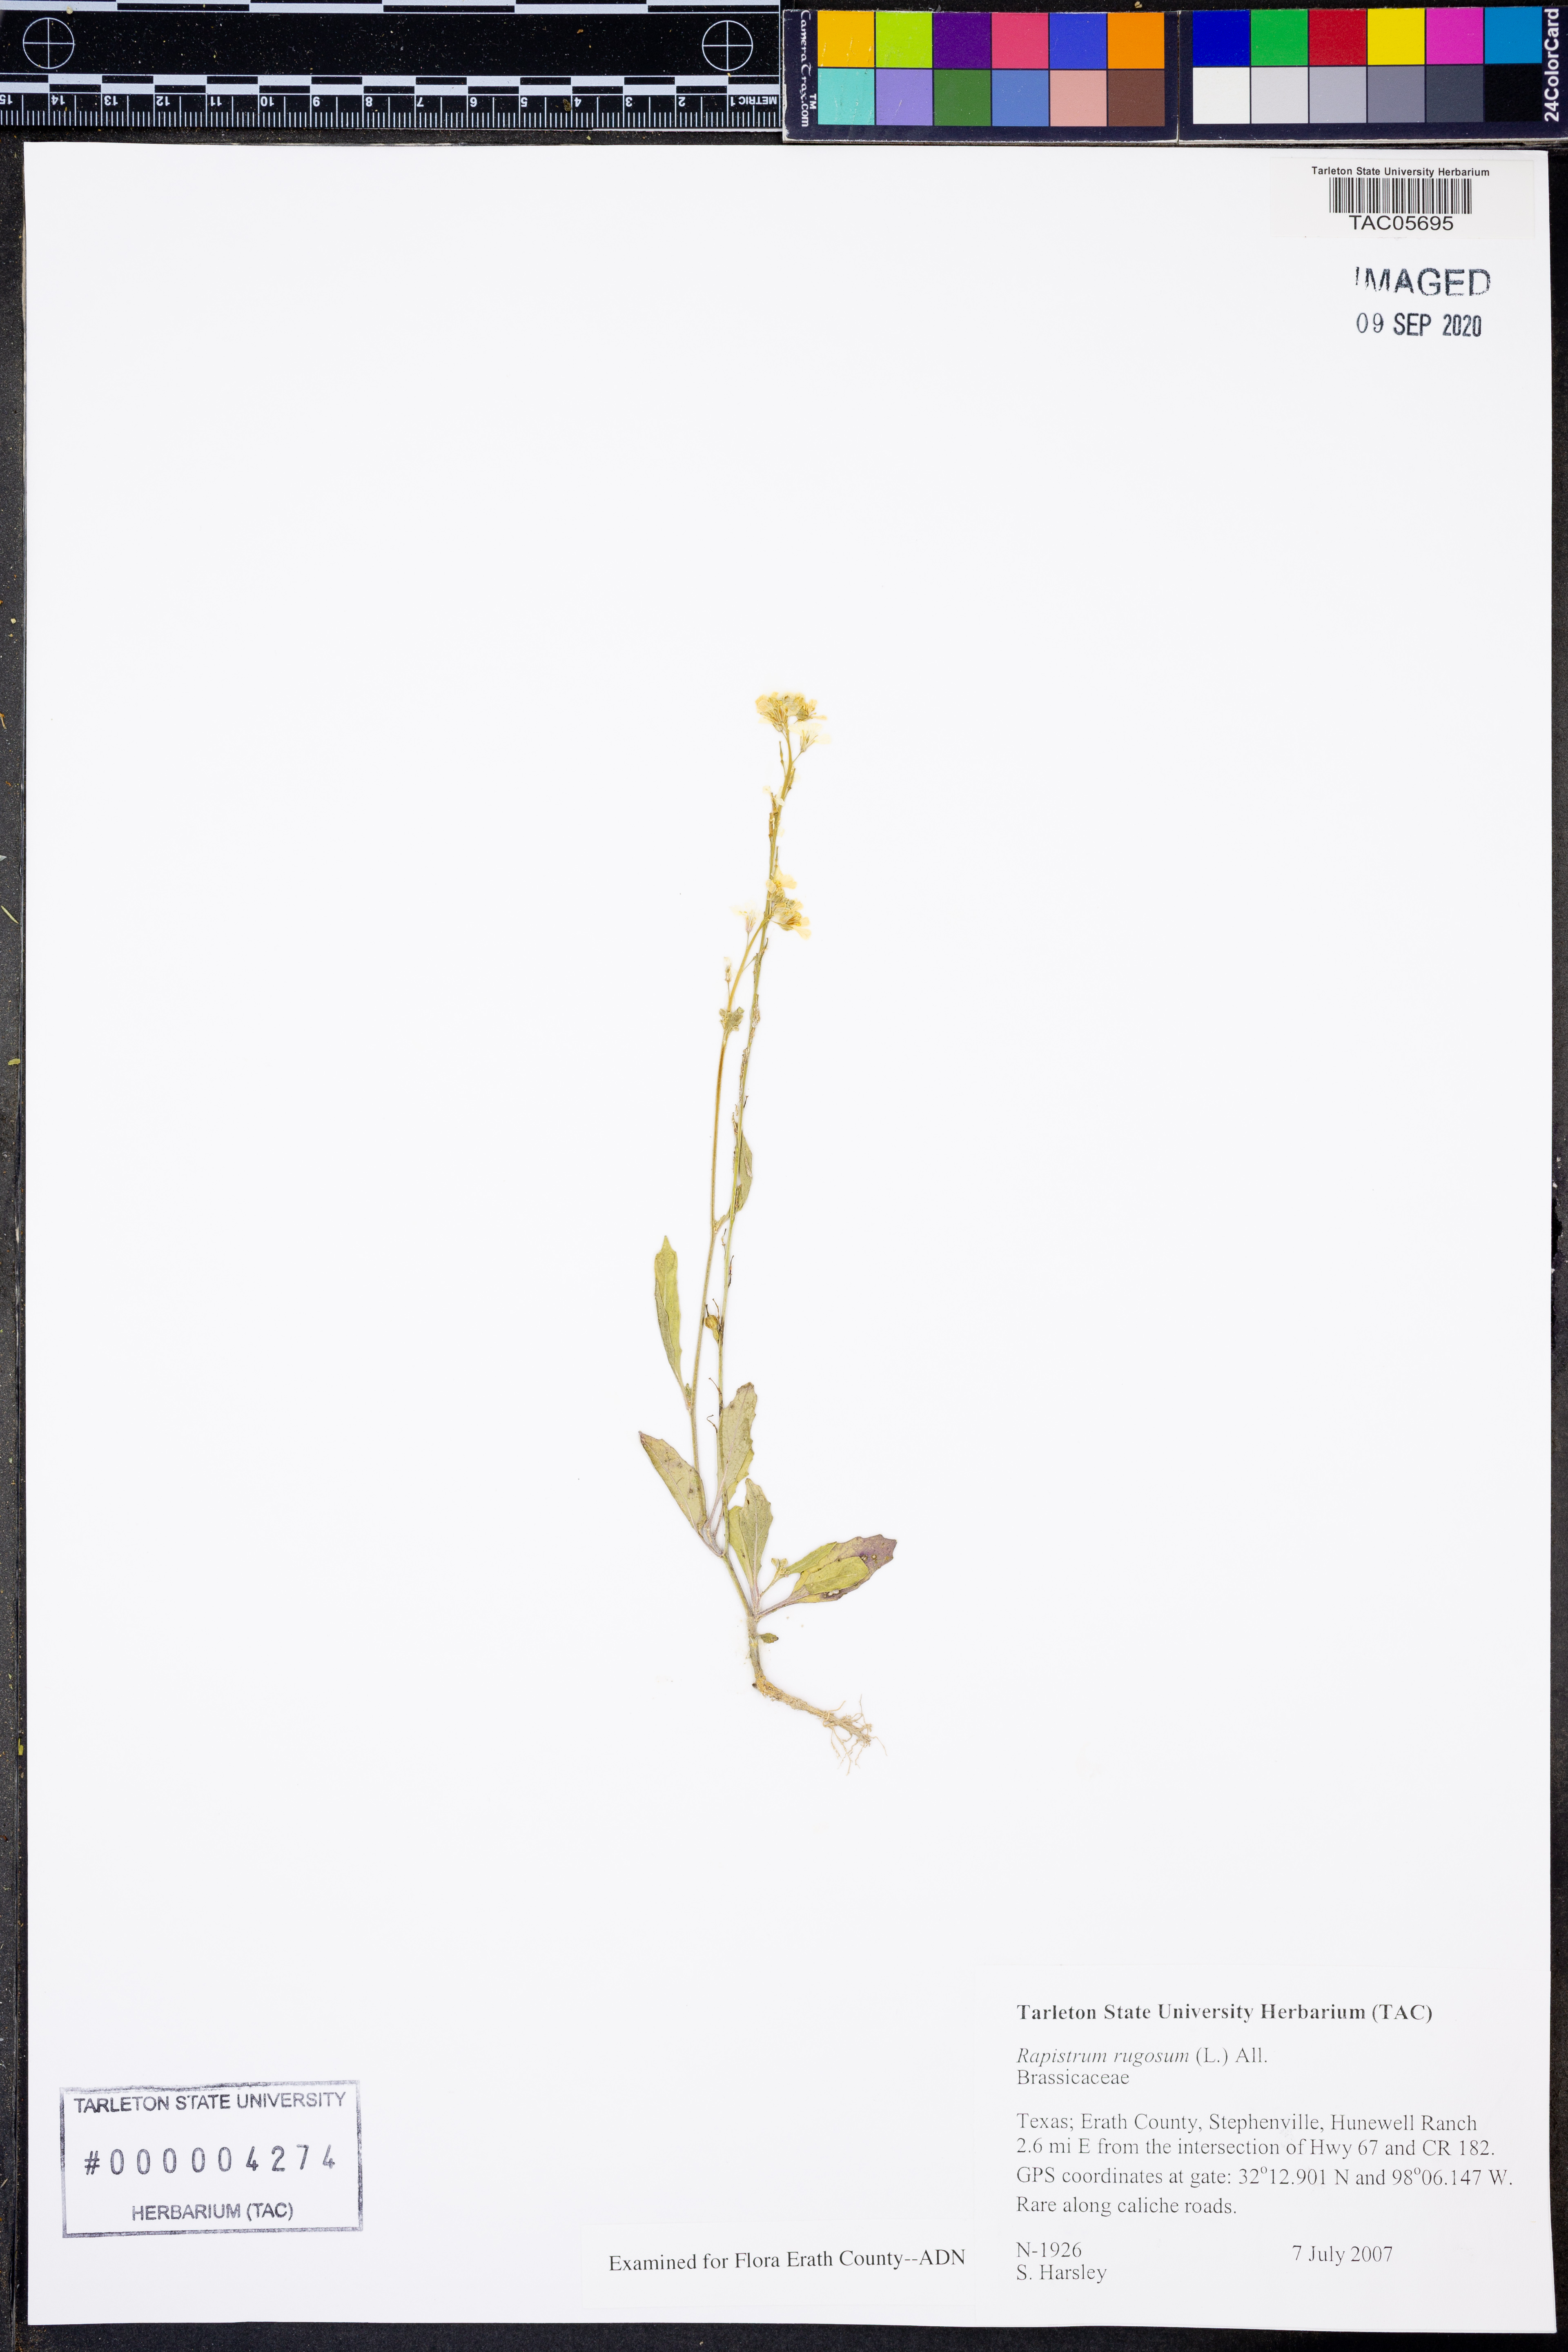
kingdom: Plantae
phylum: Tracheophyta
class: Magnoliopsida
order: Brassicales
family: Brassicaceae
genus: Rapistrum
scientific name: Rapistrum rugosum
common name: Annual bastardcabbage
